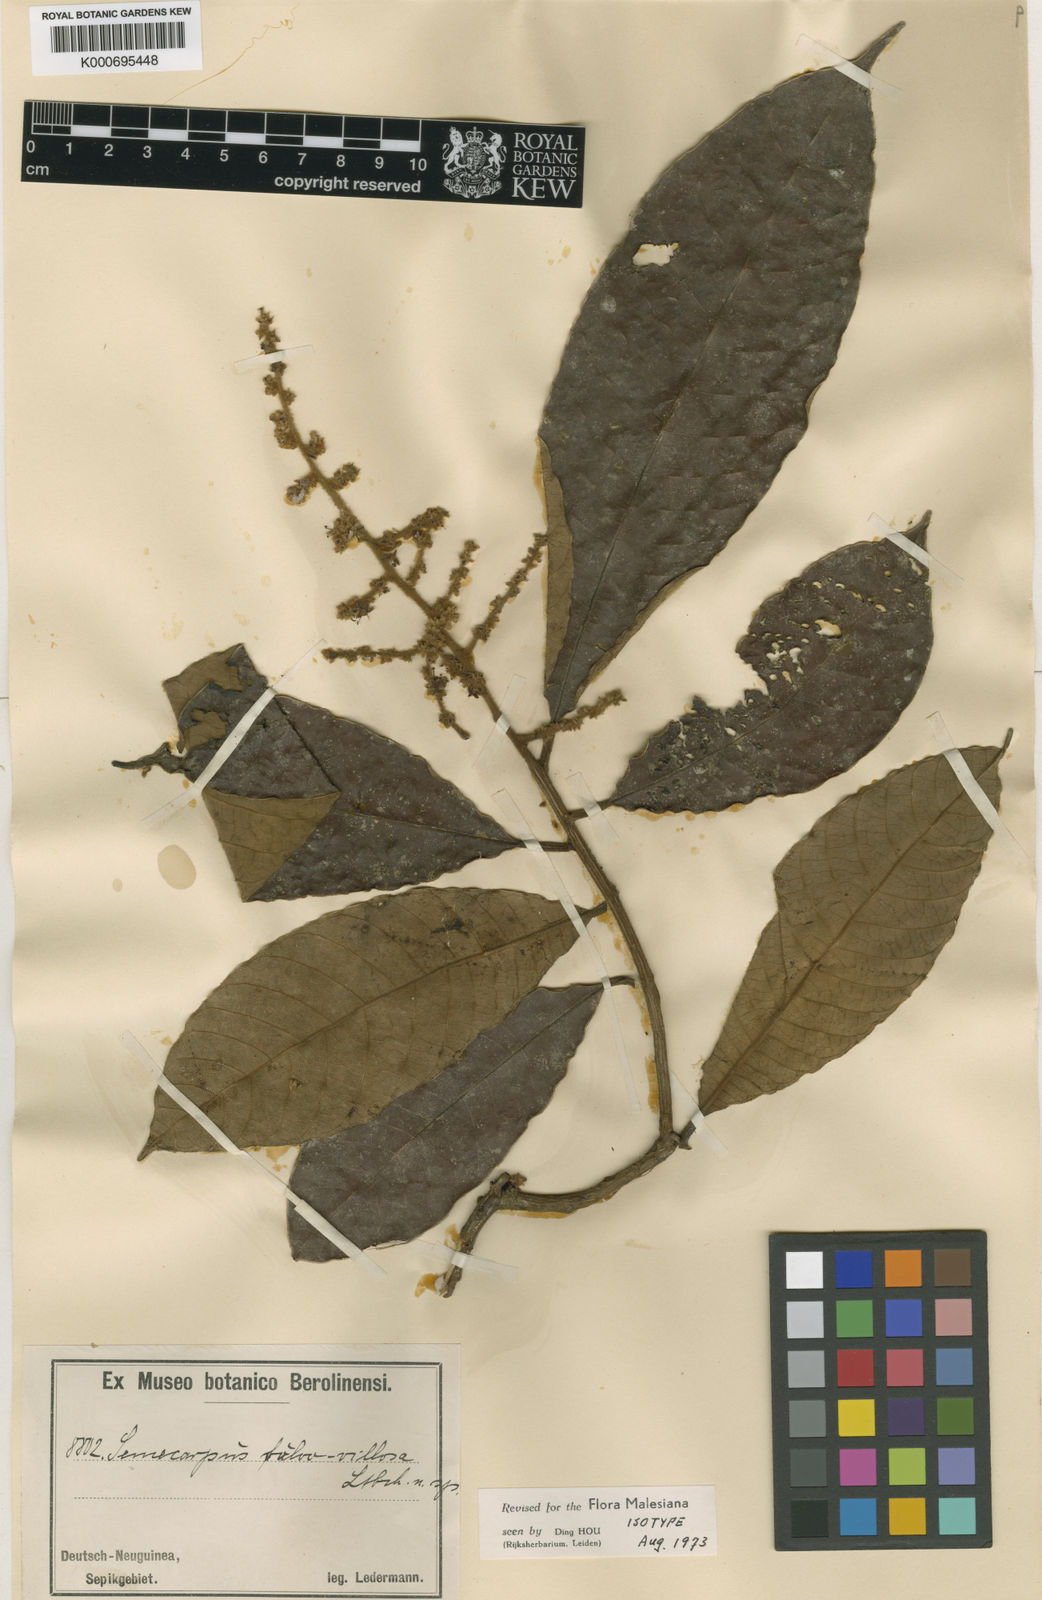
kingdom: Plantae
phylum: Tracheophyta
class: Magnoliopsida
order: Sapindales
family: Anacardiaceae
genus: Semecarpus
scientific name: Semecarpus aruensis
